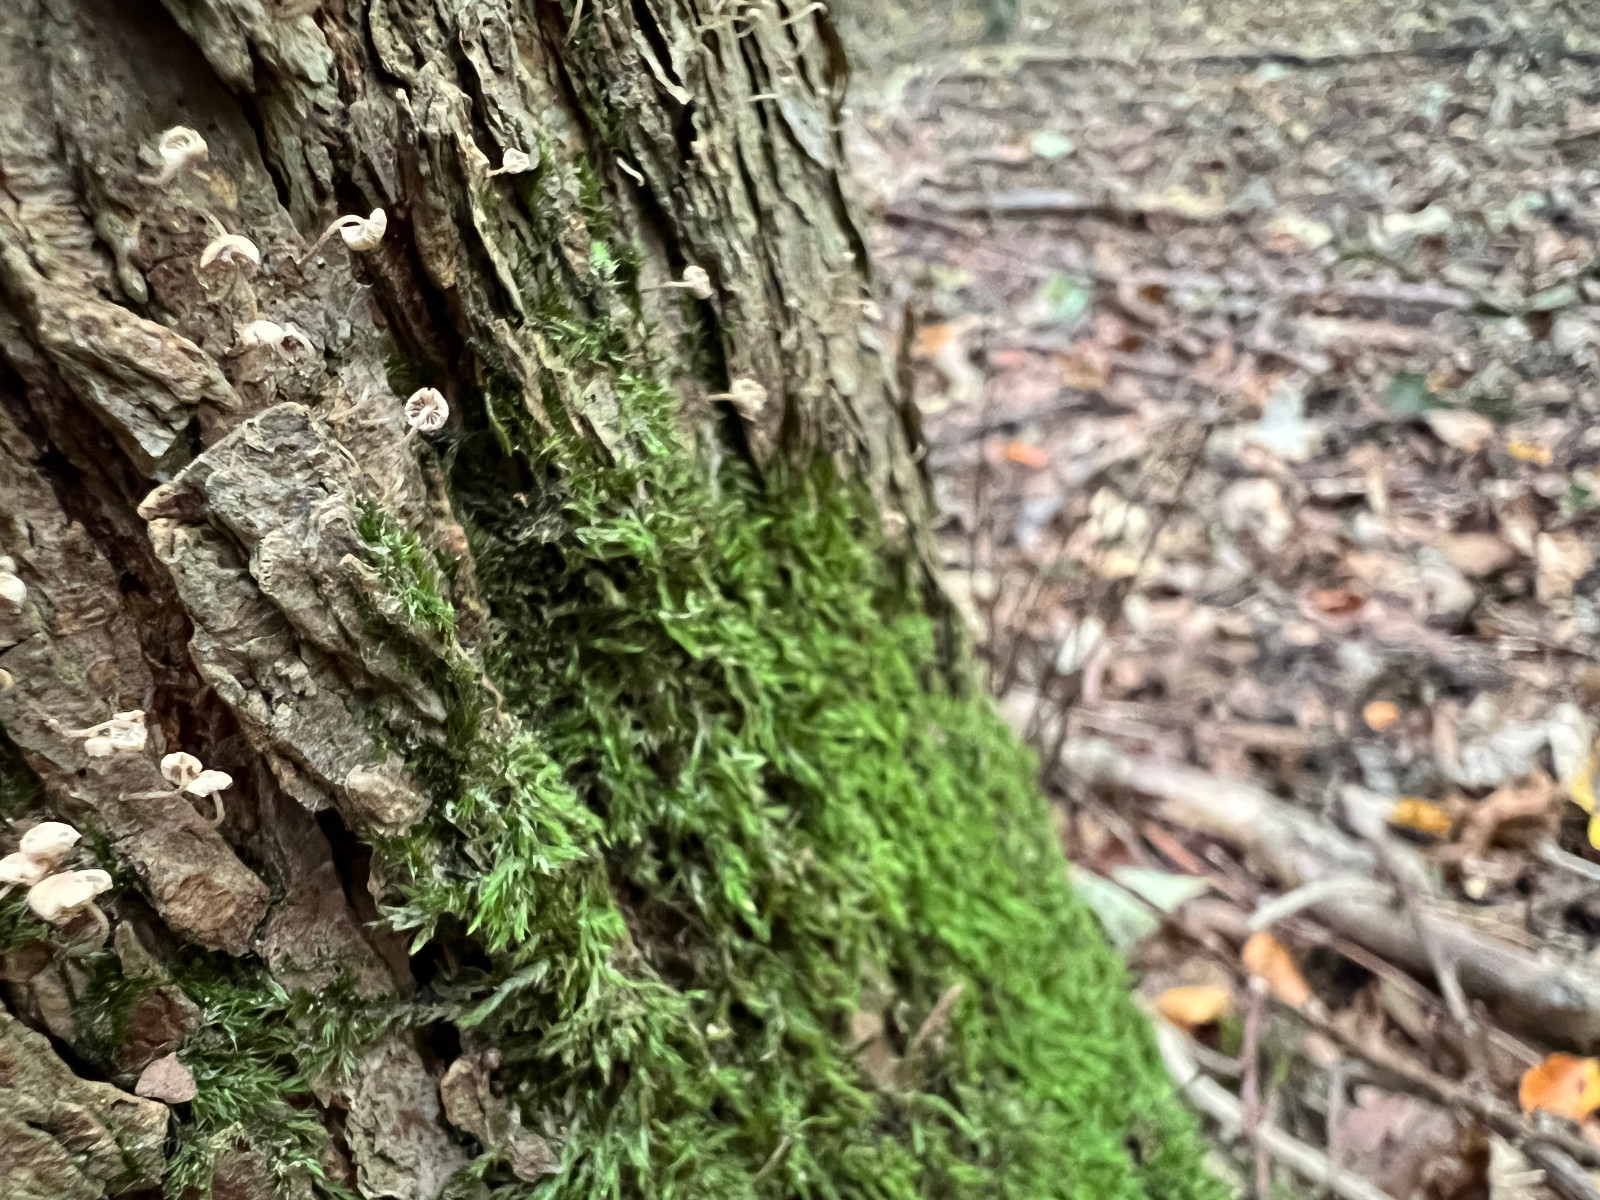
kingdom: Fungi
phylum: Basidiomycota
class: Agaricomycetes
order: Agaricales
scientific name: Agaricales
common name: champignonordenen
